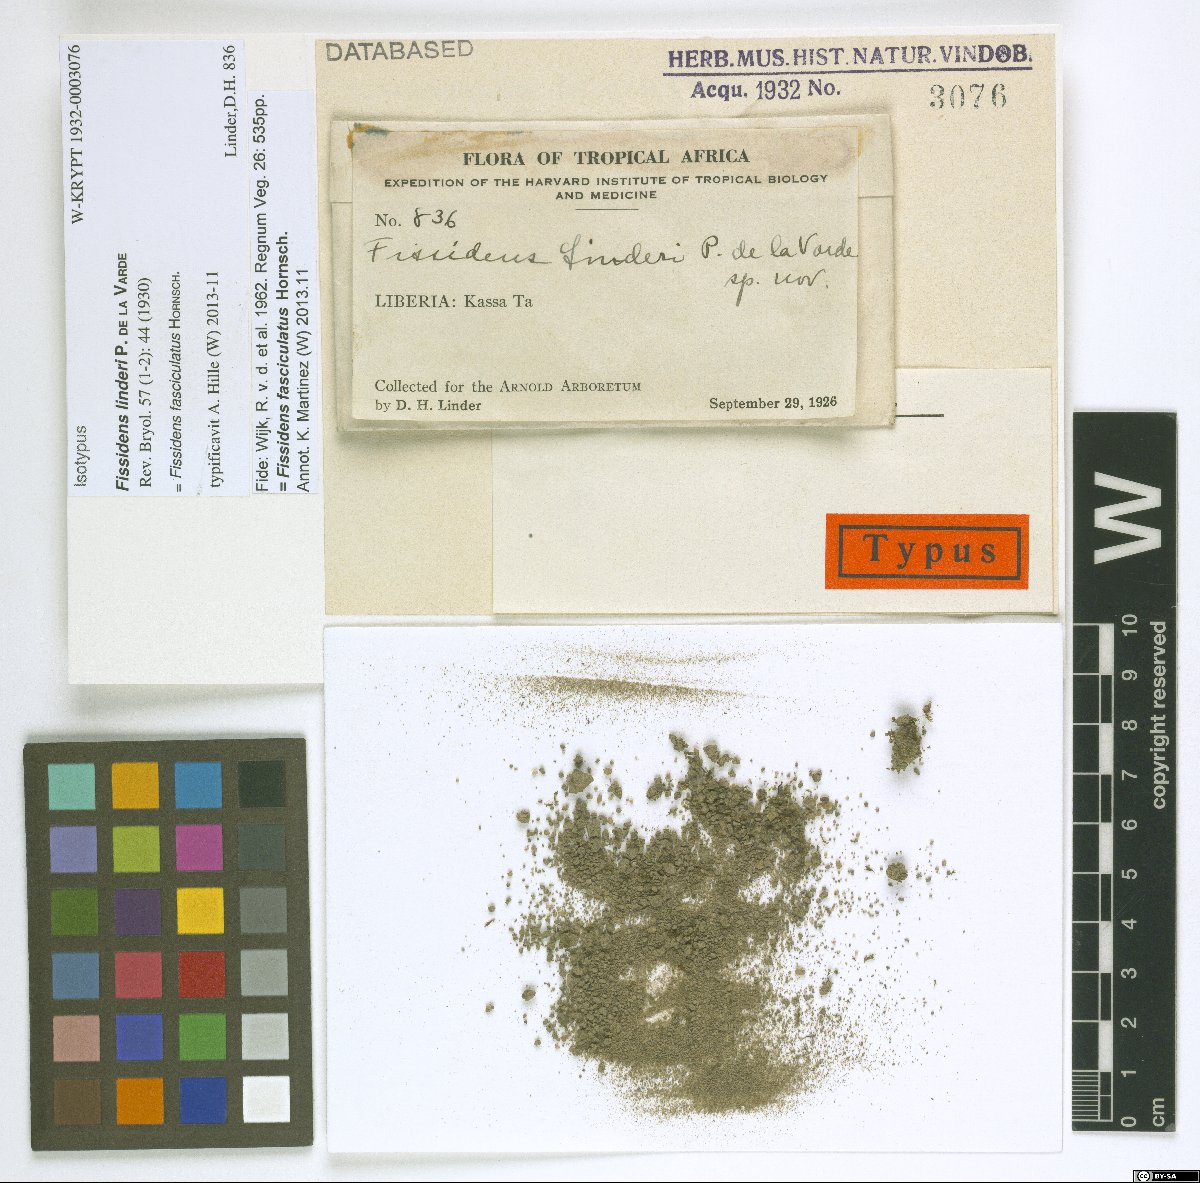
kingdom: Plantae
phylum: Bryophyta
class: Bryopsida
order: Dicranales
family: Fissidentaceae
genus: Fissidens
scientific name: Fissidens pellucidus
